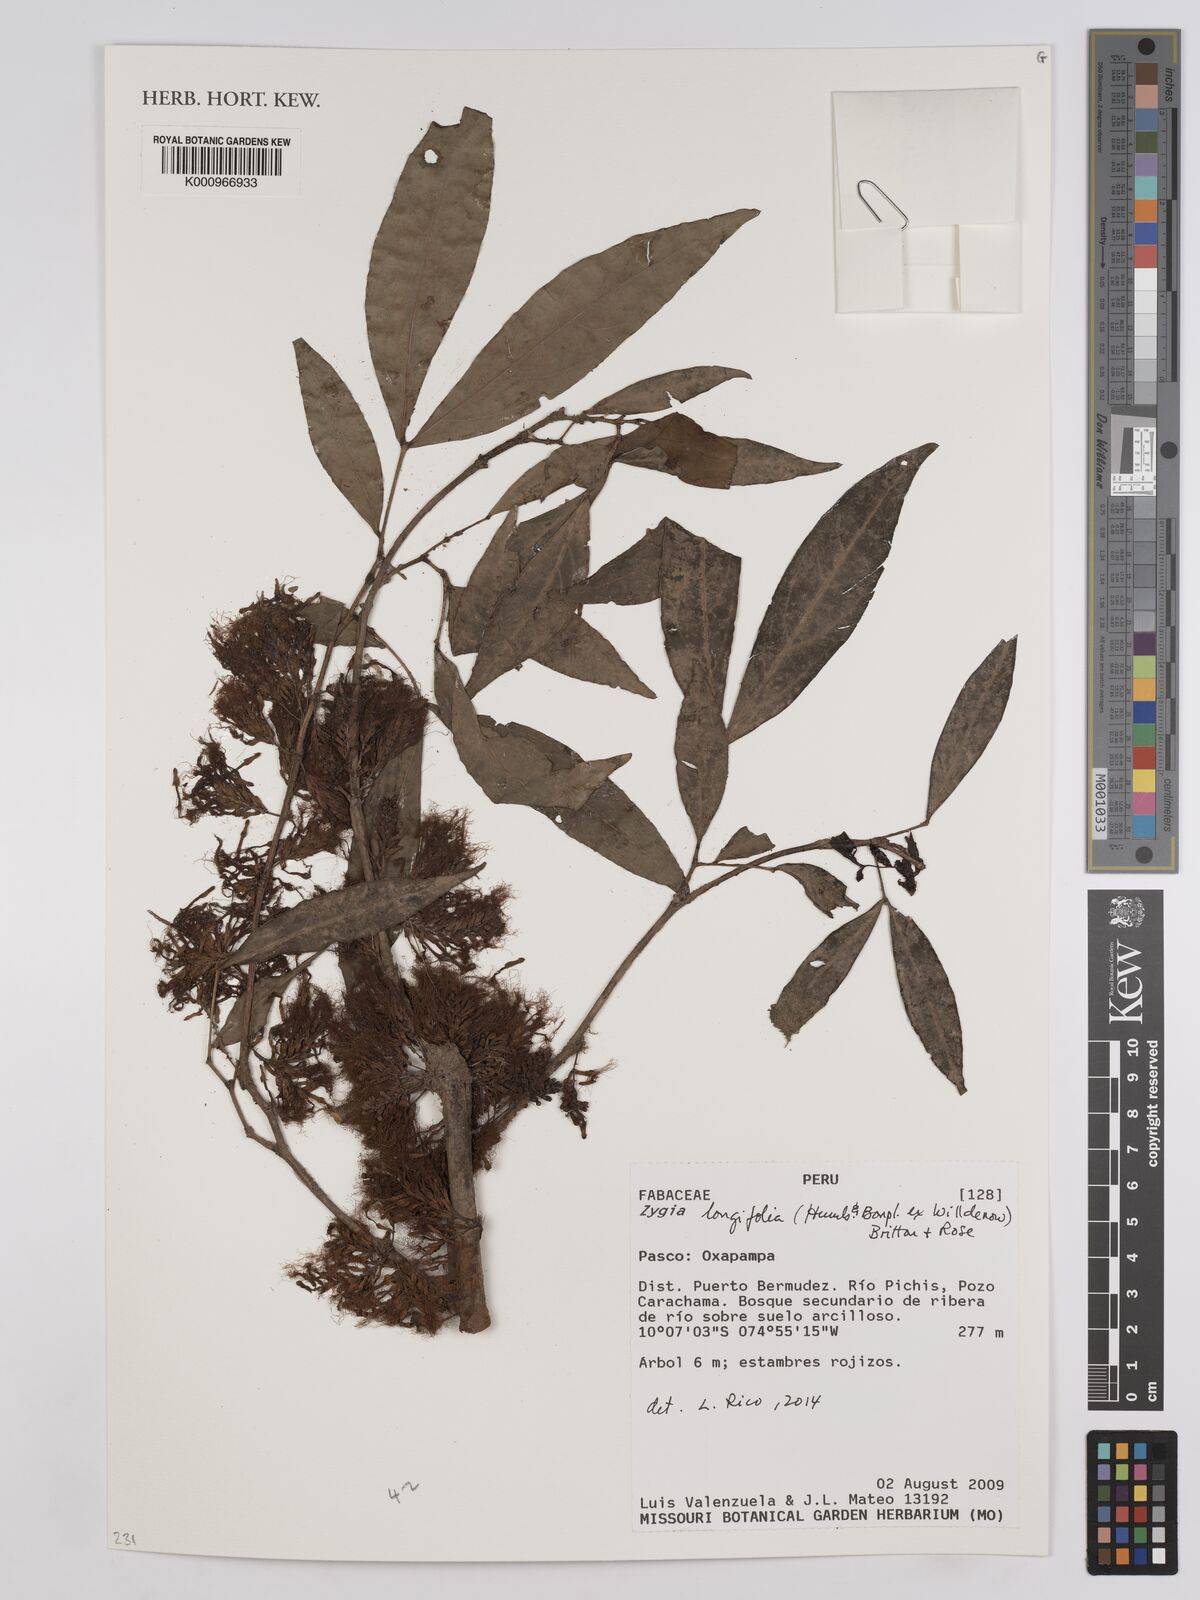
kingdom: Plantae
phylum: Tracheophyta
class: Magnoliopsida
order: Fabales
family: Fabaceae
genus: Zygia
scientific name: Zygia longifolia
